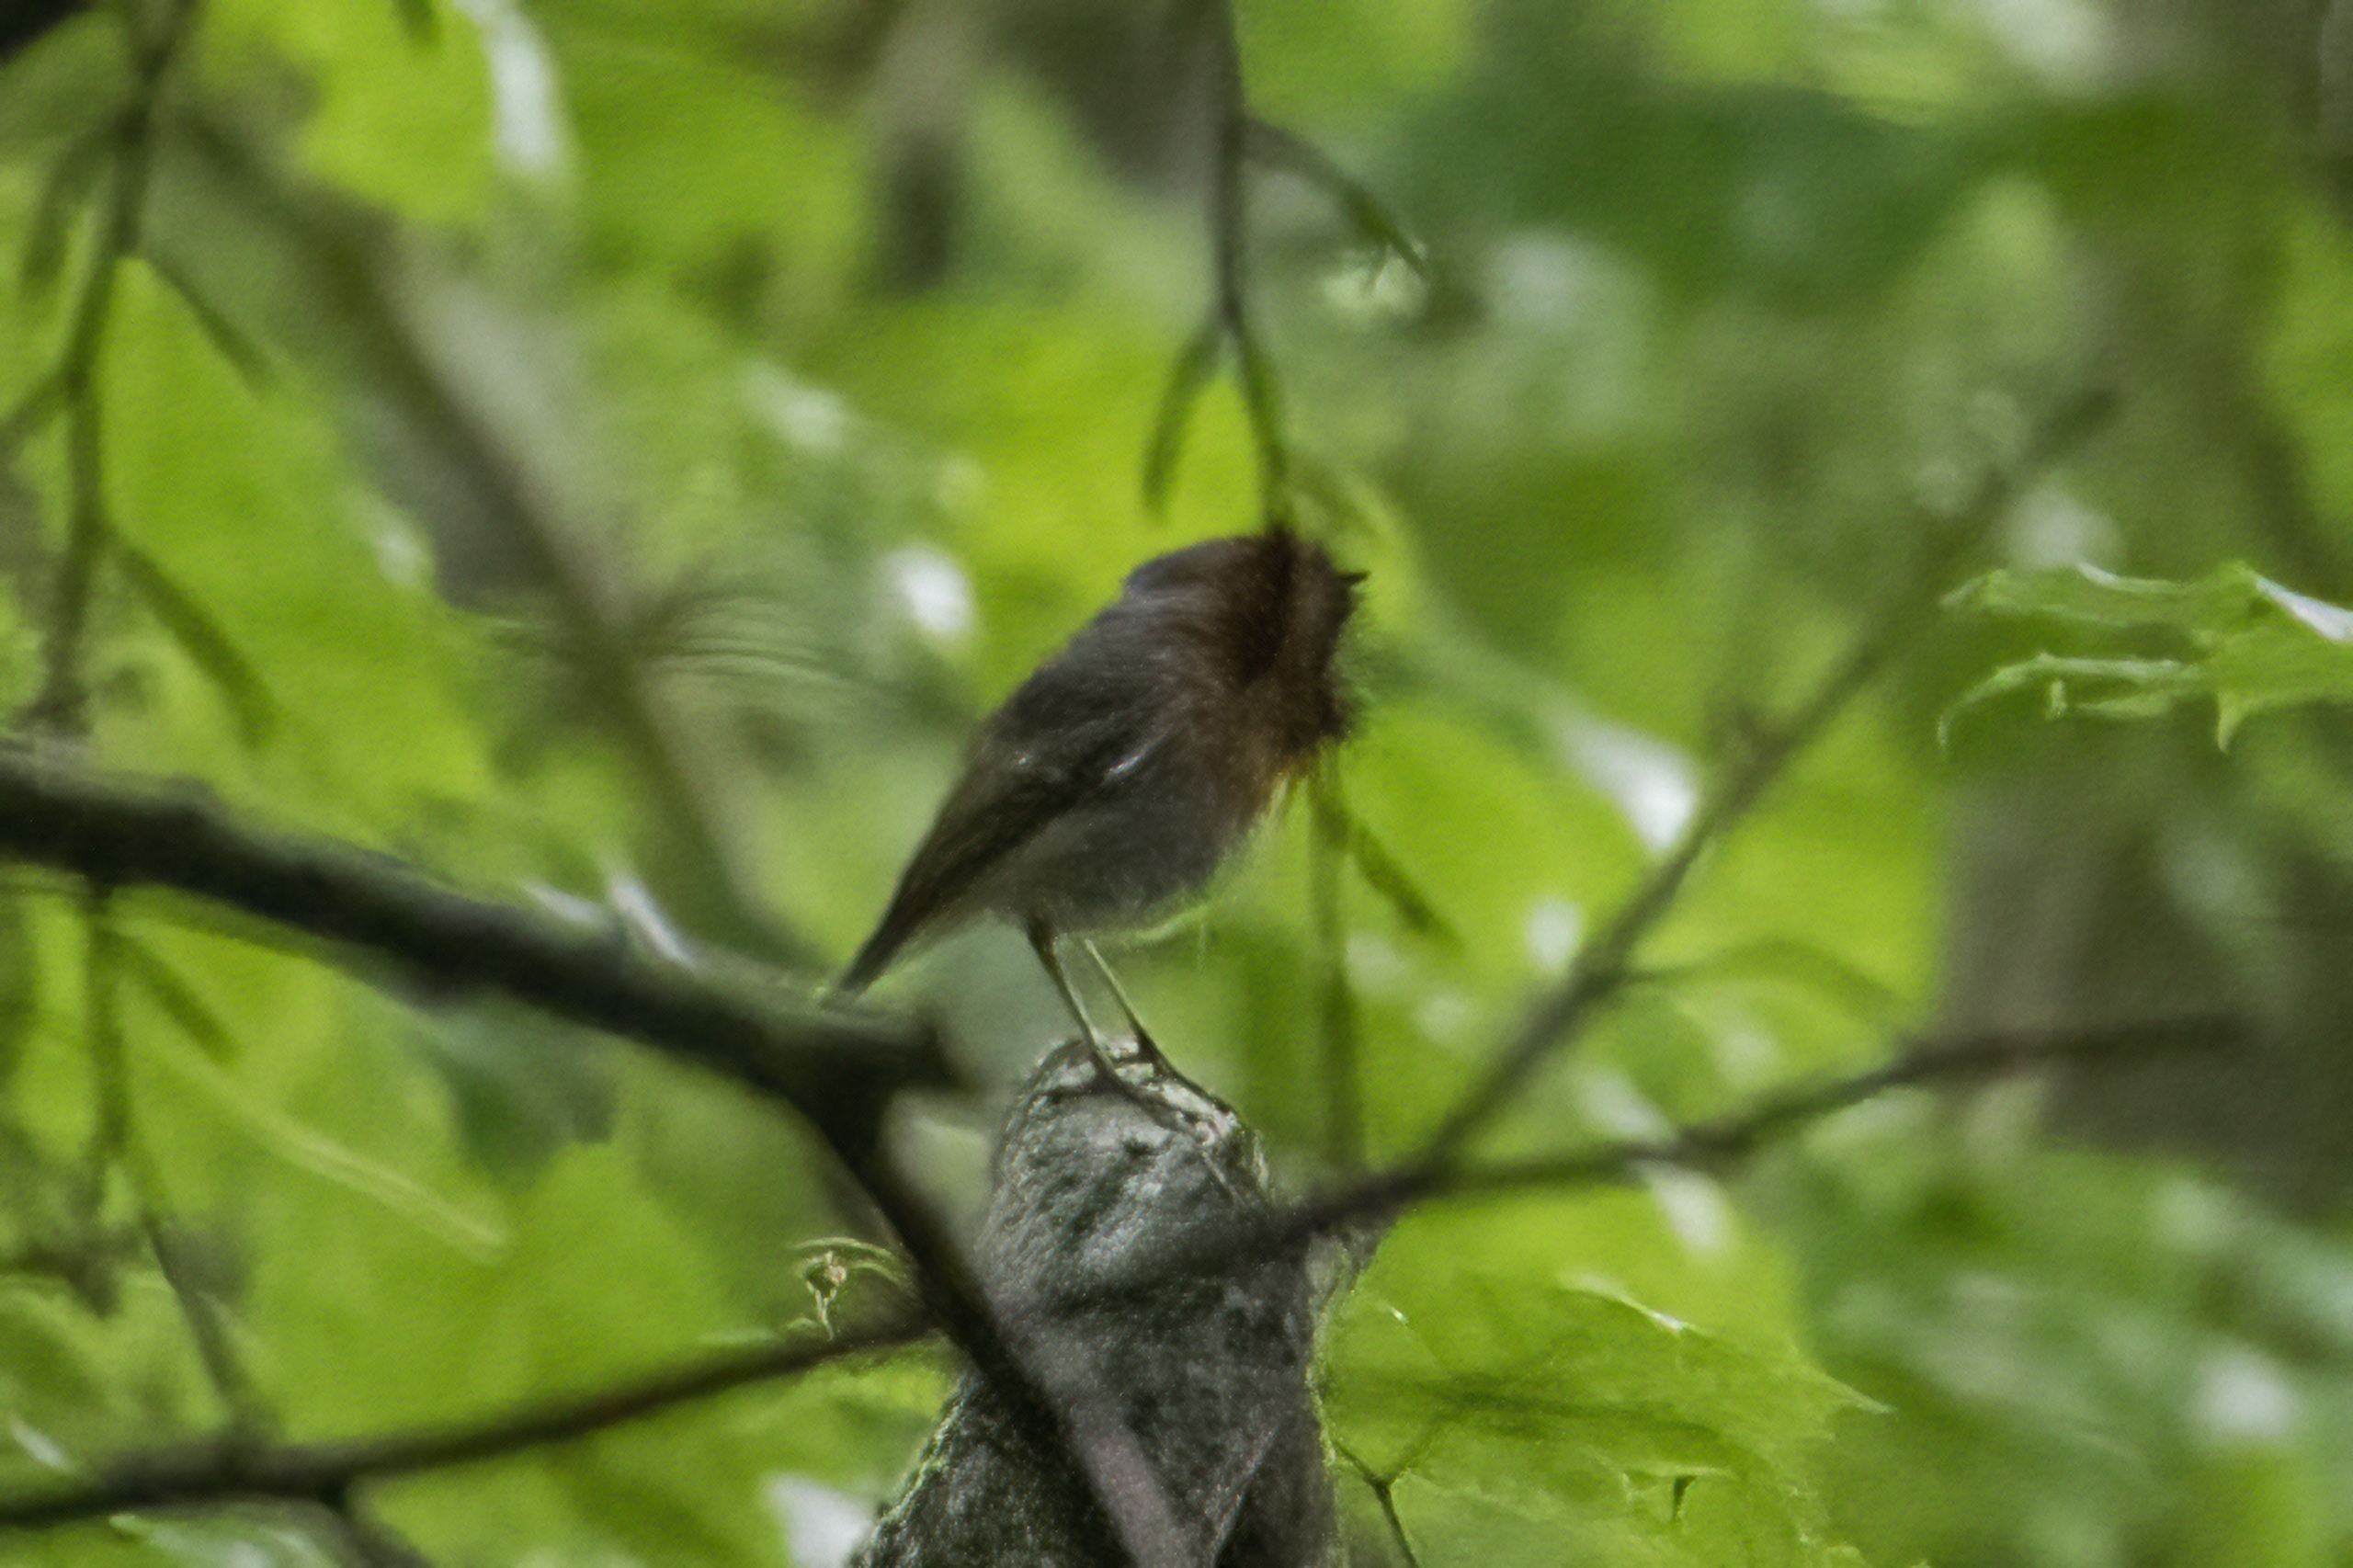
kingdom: Animalia
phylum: Chordata
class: Aves
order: Passeriformes
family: Muscicapidae
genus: Erithacus
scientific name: Erithacus rubecula
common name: Rødhals/rødkælk
